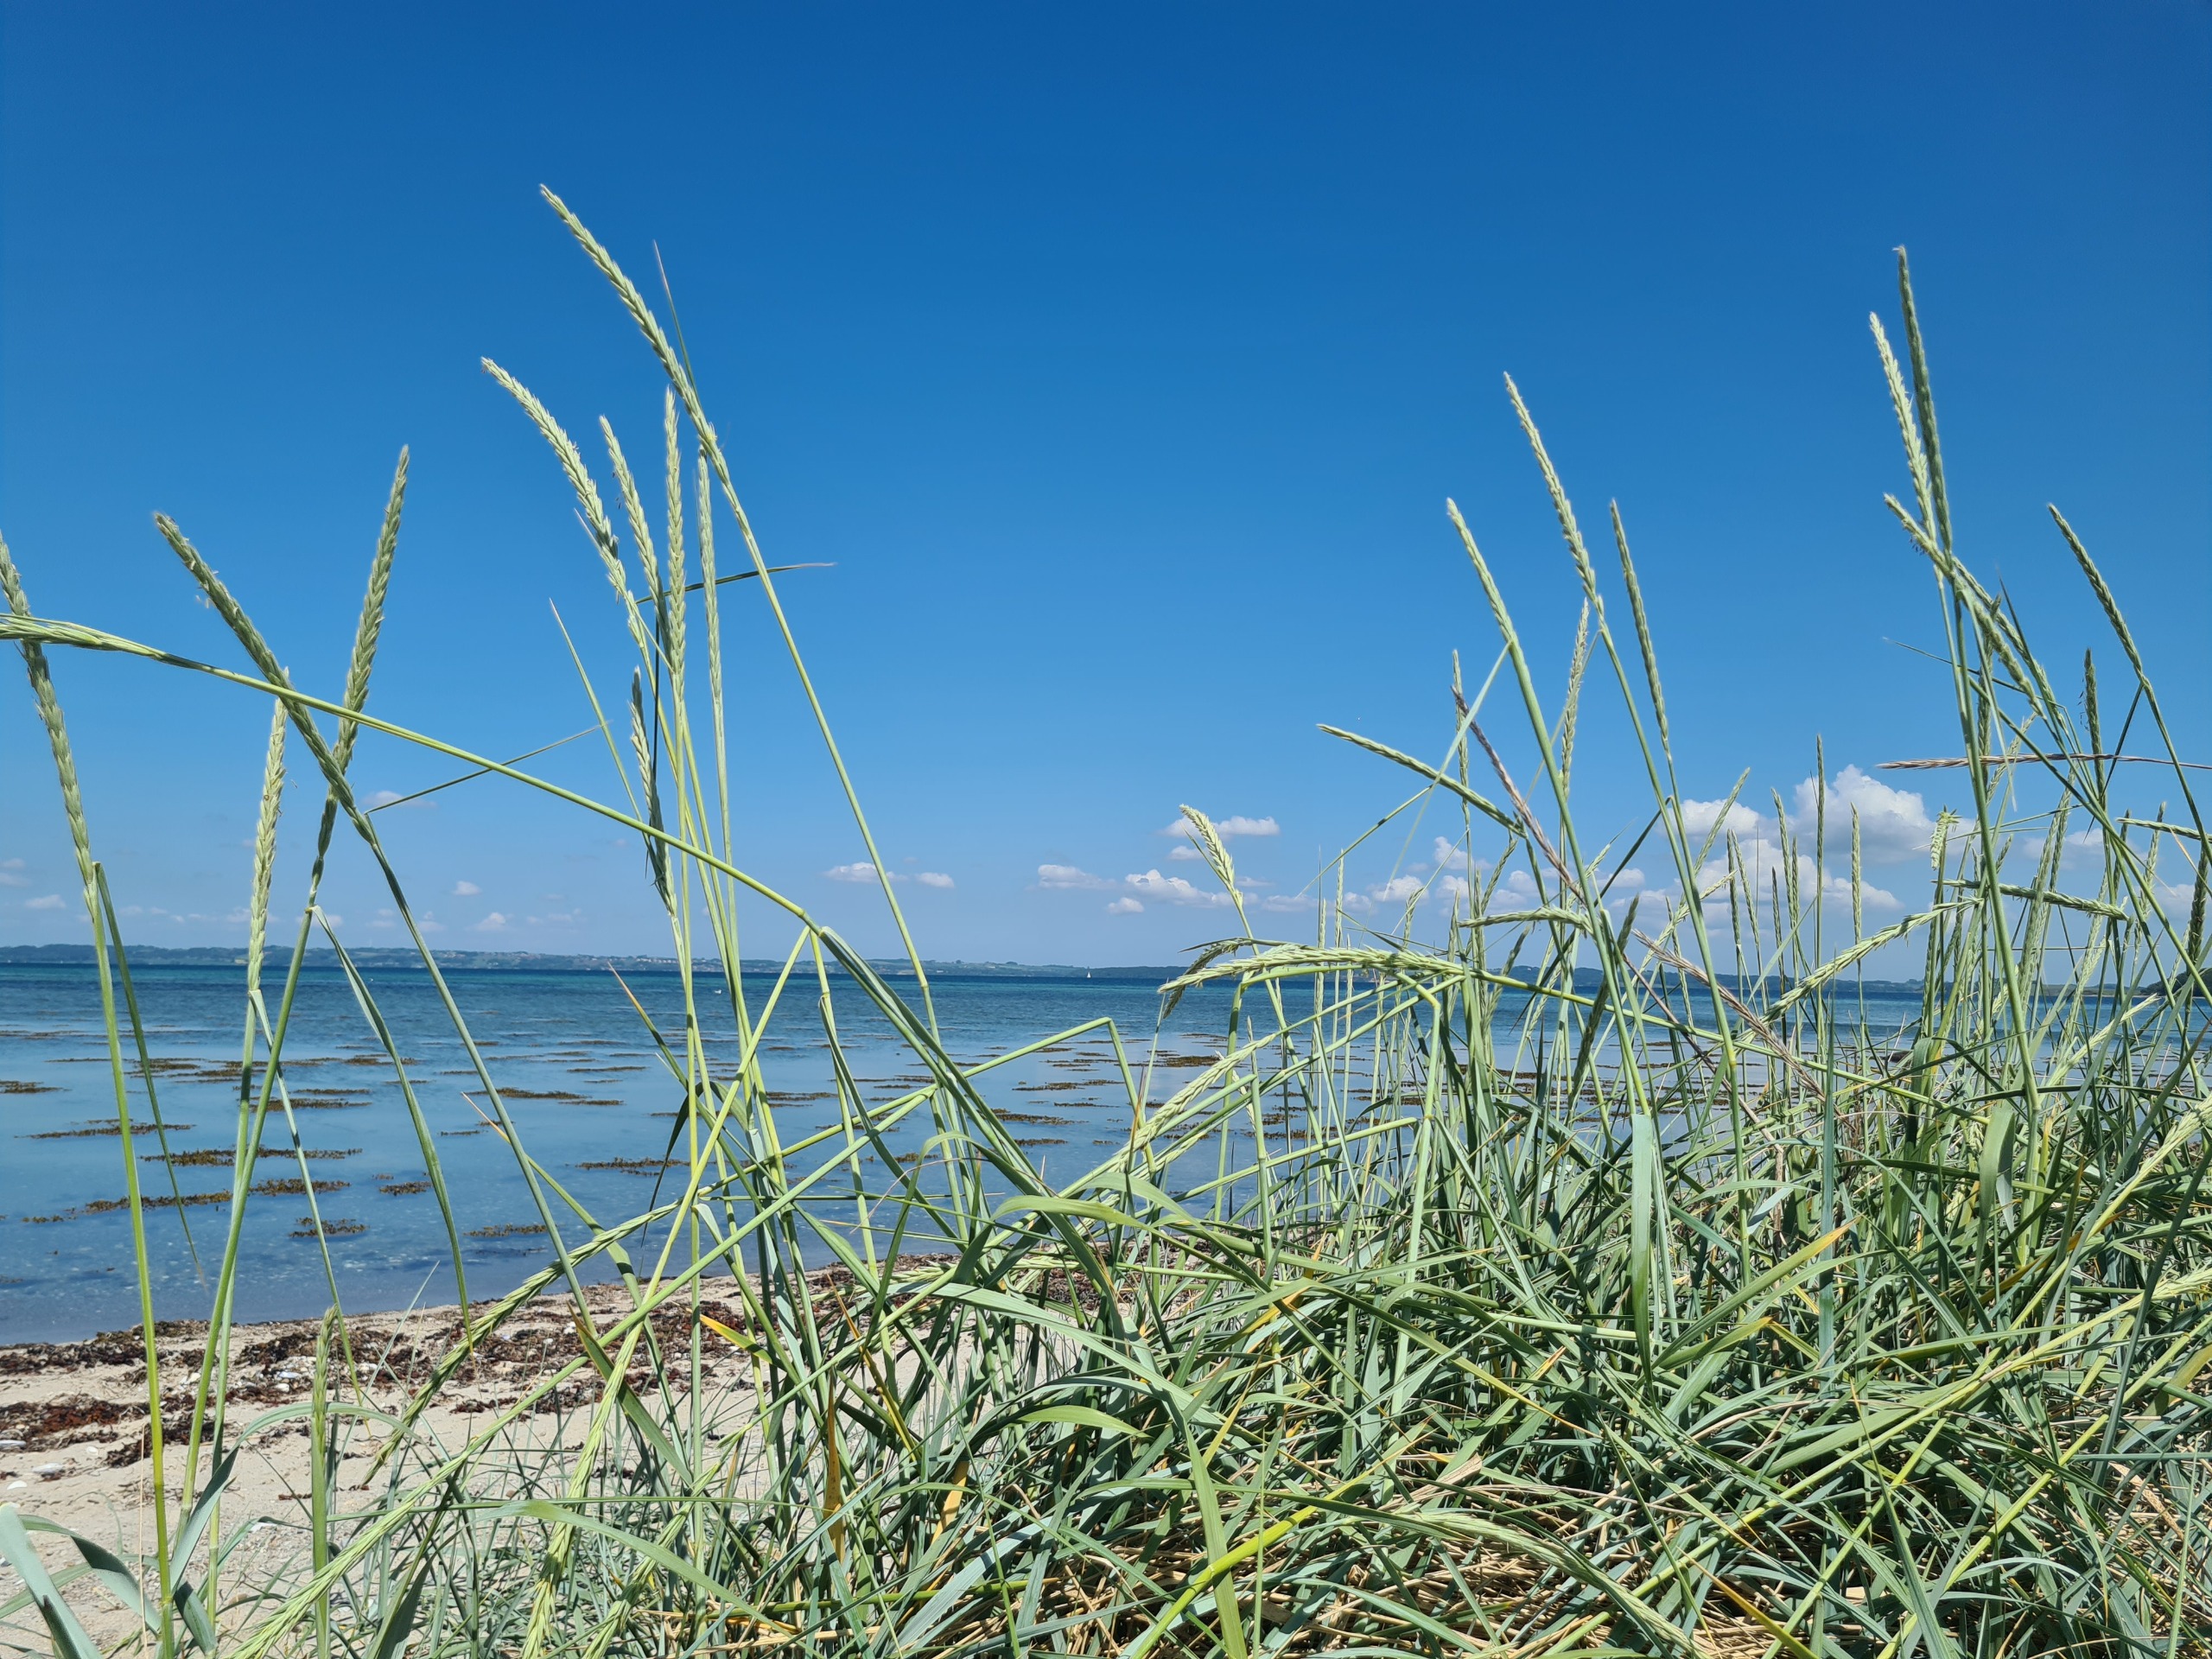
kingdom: Plantae
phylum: Tracheophyta
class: Liliopsida
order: Poales
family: Poaceae
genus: Leymus
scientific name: Leymus arenarius
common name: Marehalm
